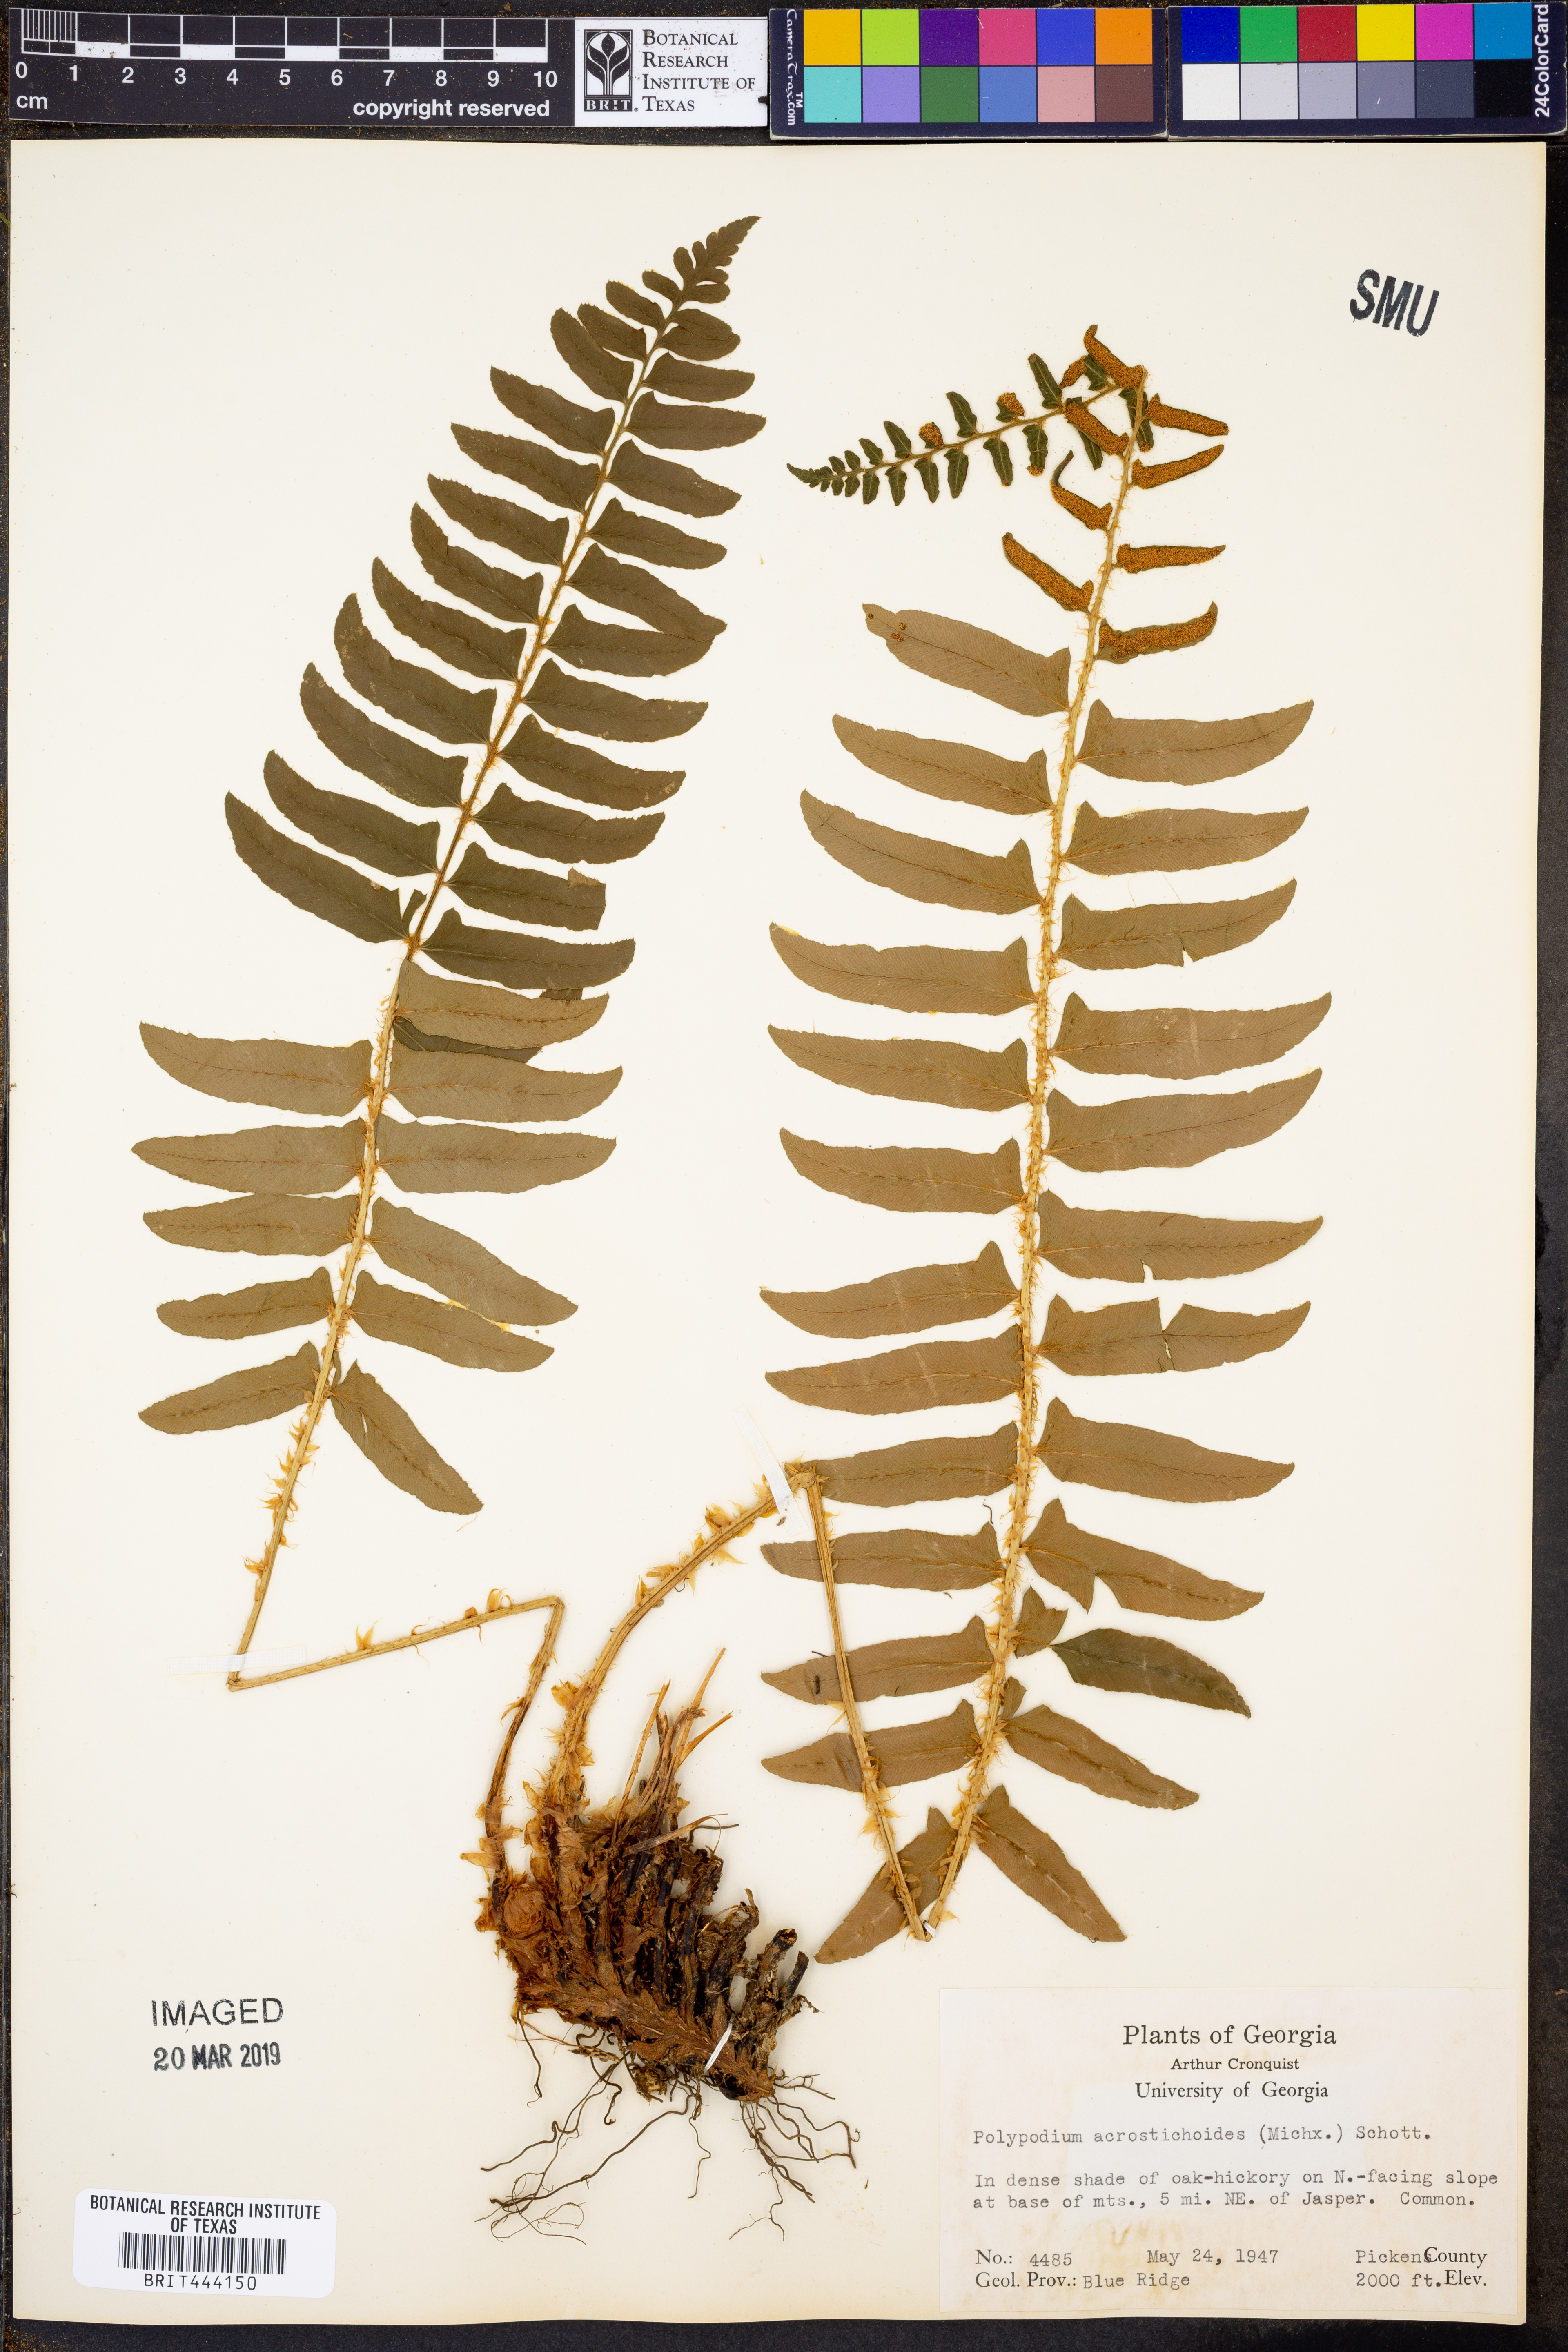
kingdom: Plantae
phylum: Tracheophyta
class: Polypodiopsida
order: Polypodiales
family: Polypodiaceae
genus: Pyrrosia
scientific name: Pyrrosia
